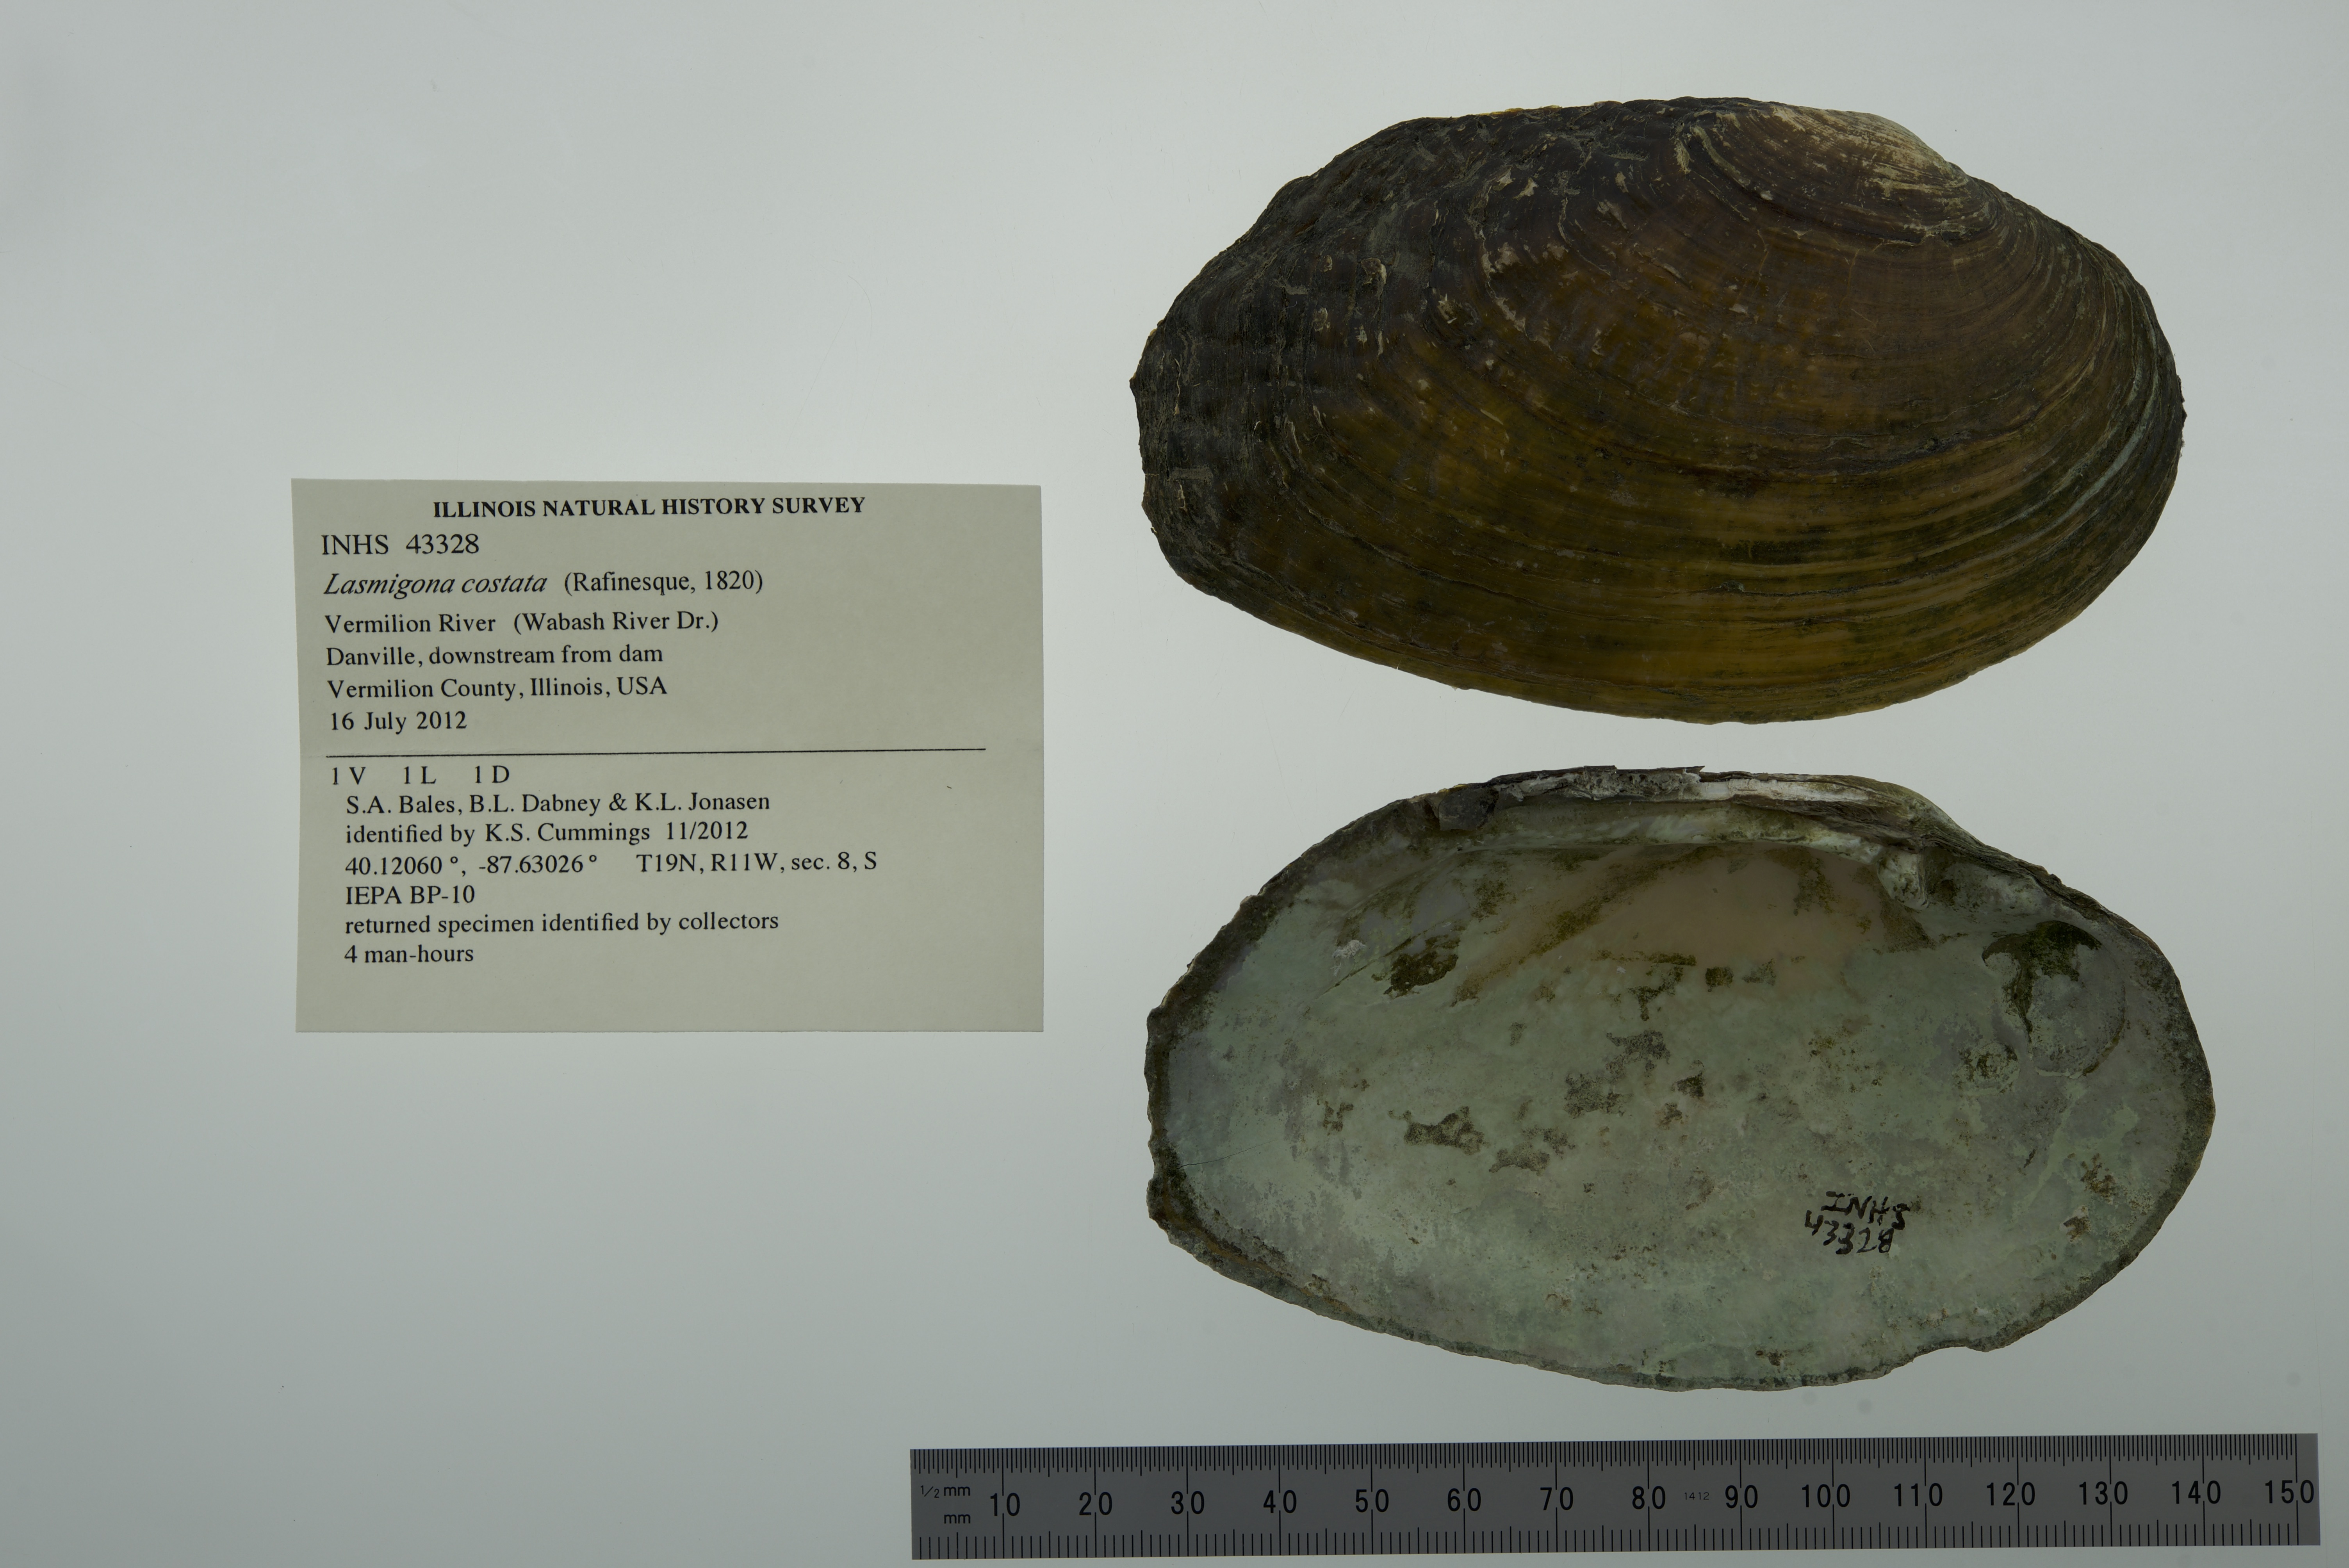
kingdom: Animalia
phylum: Mollusca
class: Bivalvia
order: Unionida
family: Unionidae
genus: Lasmigona
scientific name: Lasmigona costata
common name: Flutedshell
